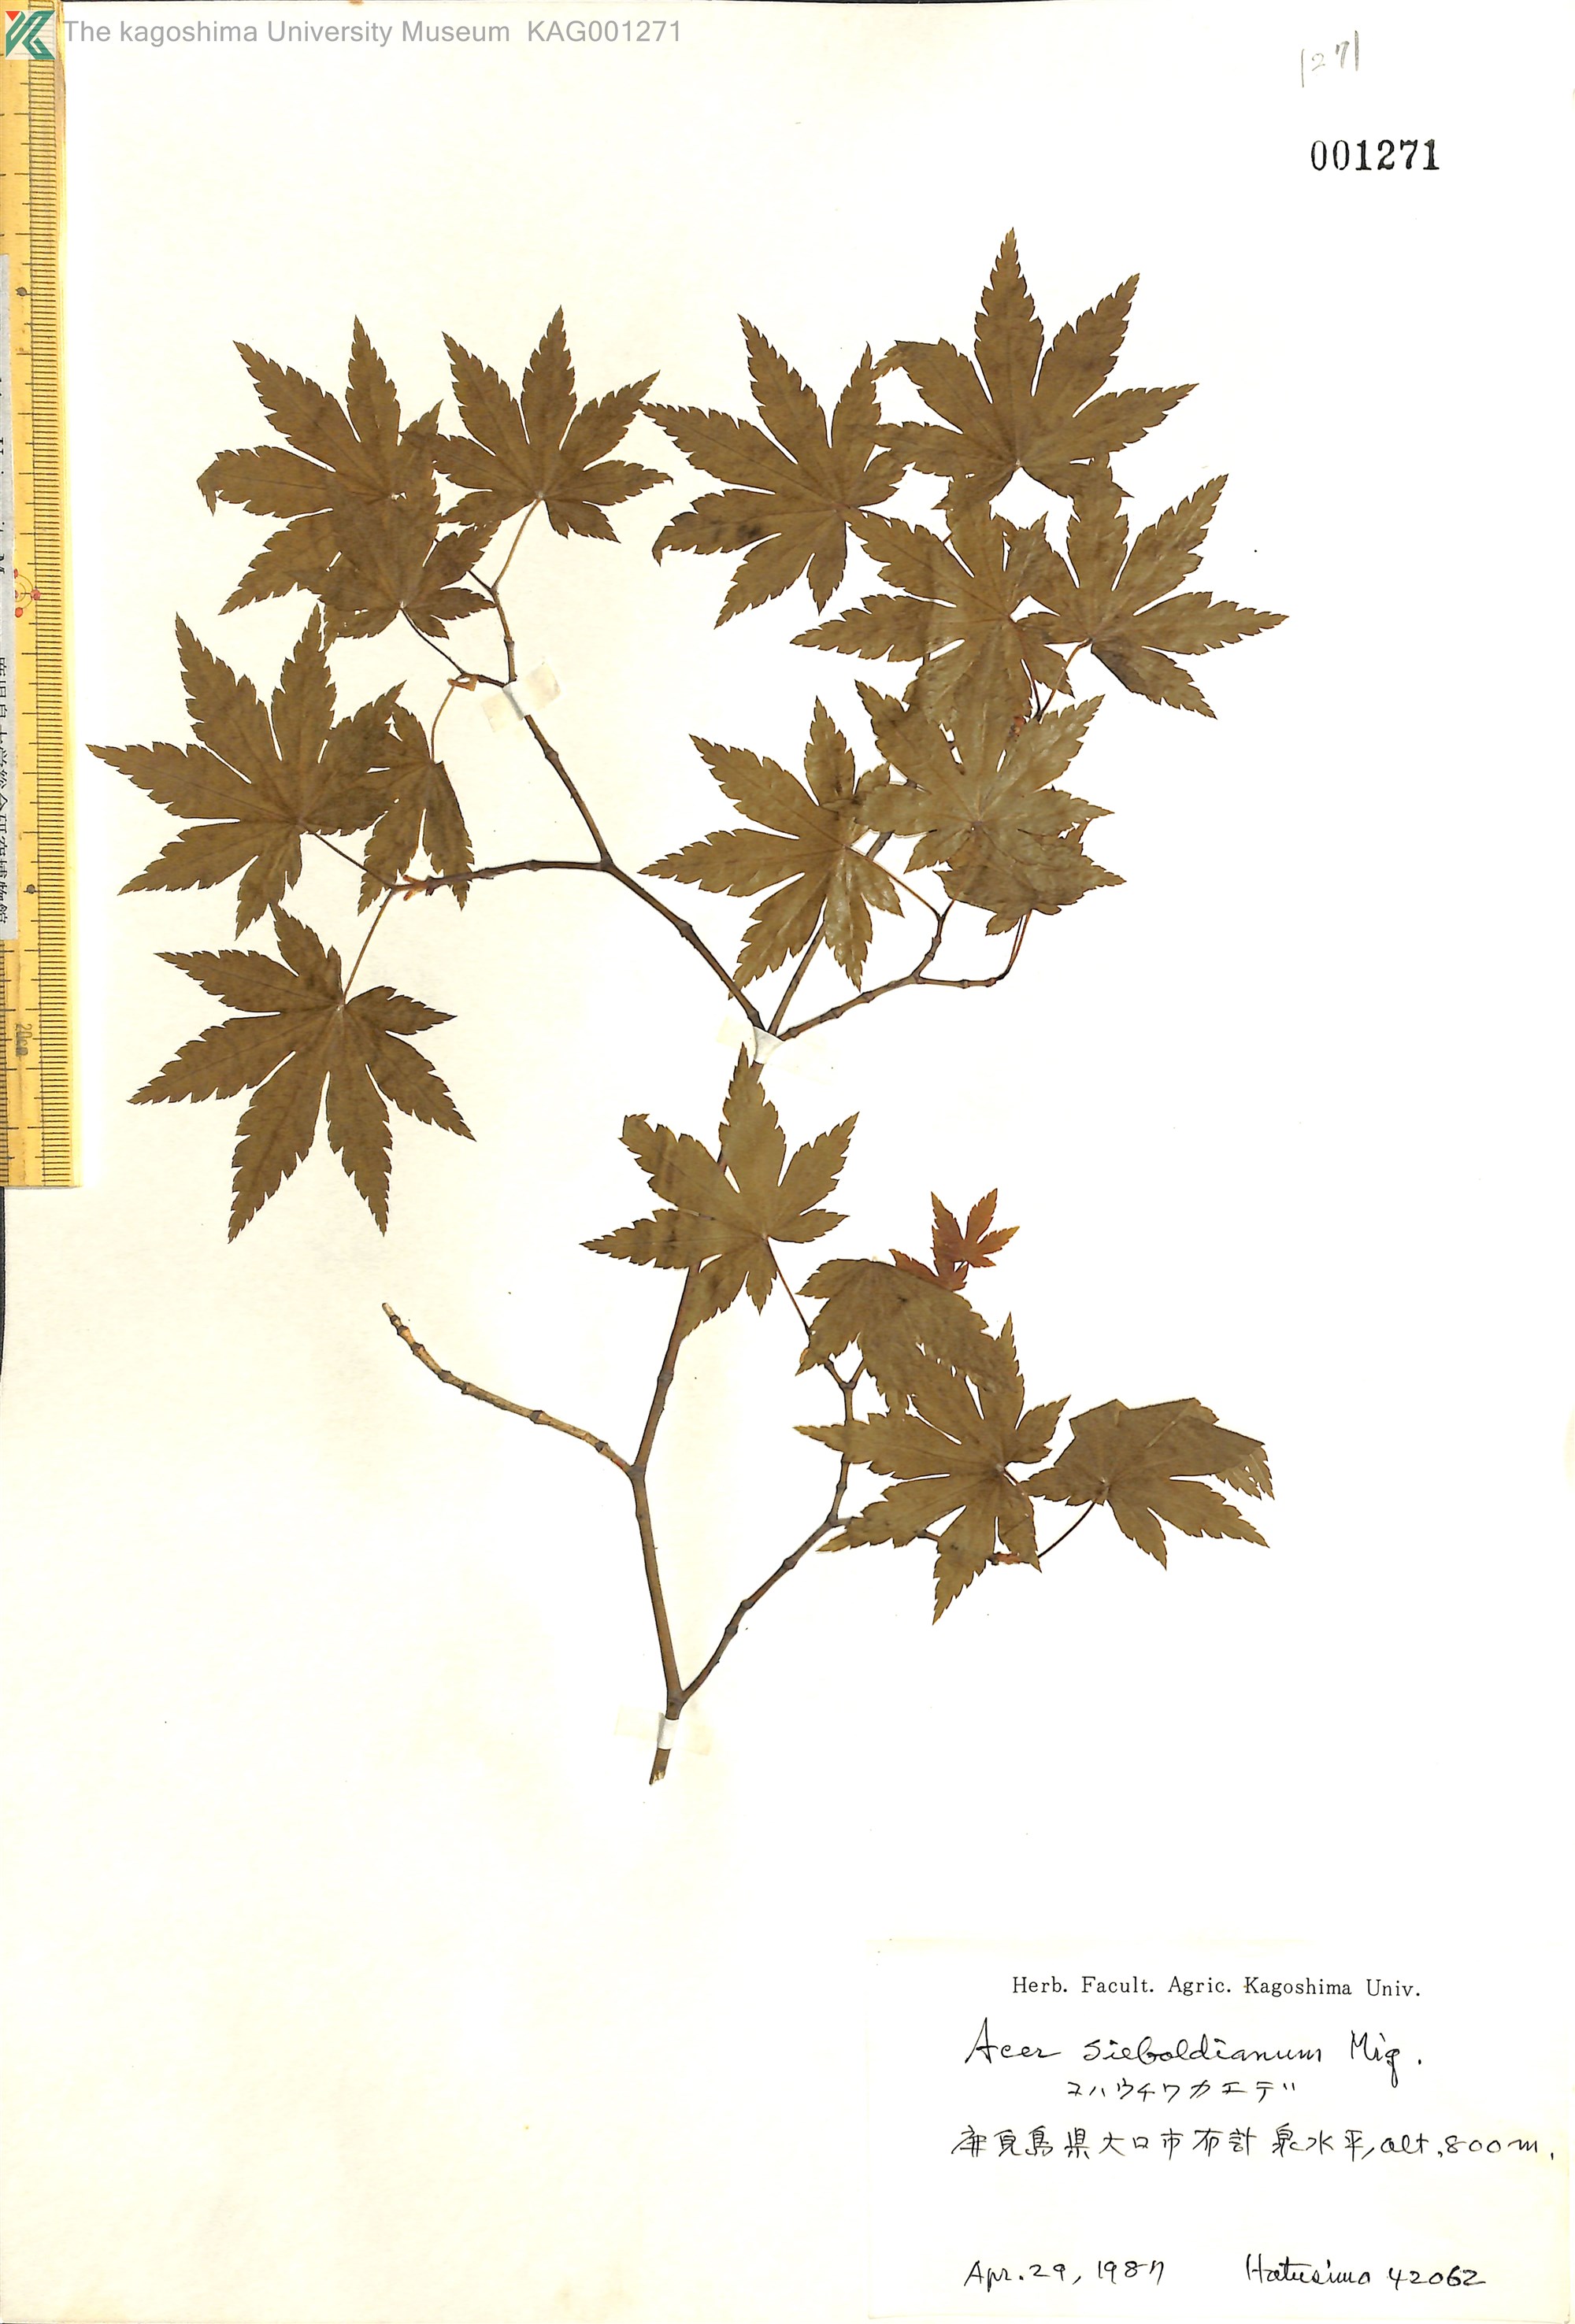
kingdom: Plantae
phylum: Tracheophyta
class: Magnoliopsida
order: Sapindales
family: Sapindaceae
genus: Acer
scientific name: Acer sieboldianum
